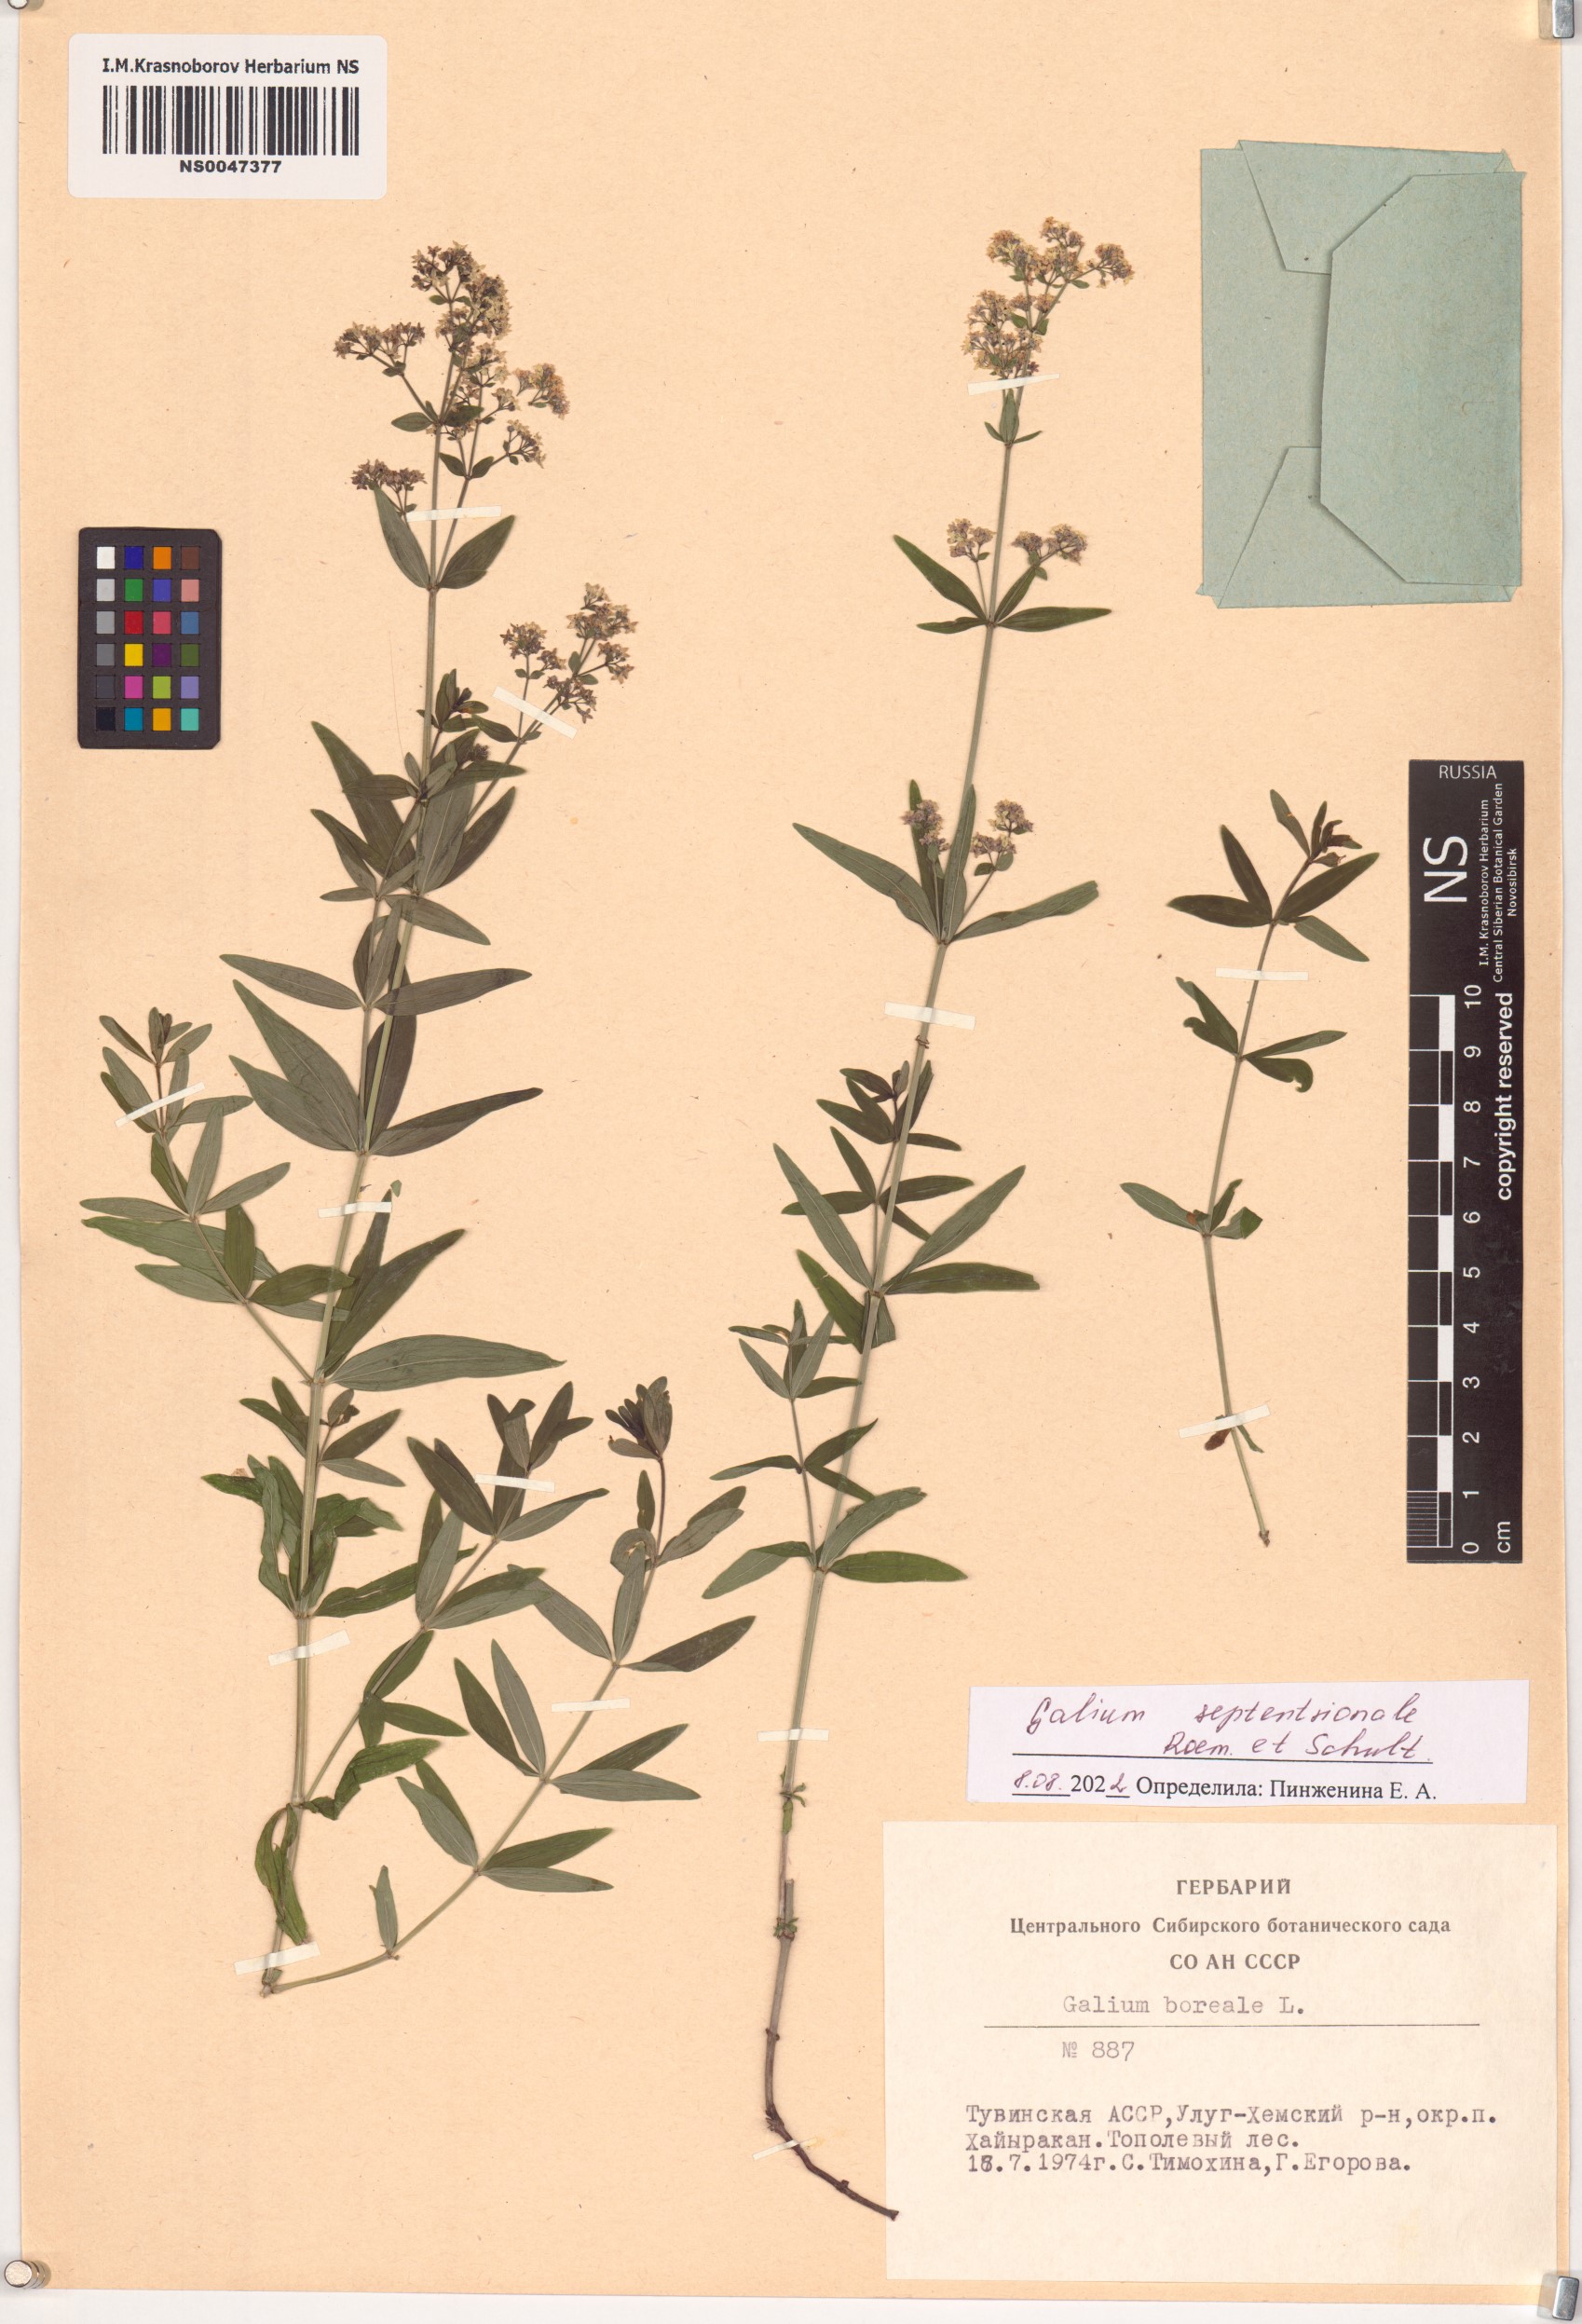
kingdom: Plantae
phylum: Tracheophyta
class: Magnoliopsida
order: Gentianales
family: Rubiaceae
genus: Galium
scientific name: Galium boreale
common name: Northern bedstraw
